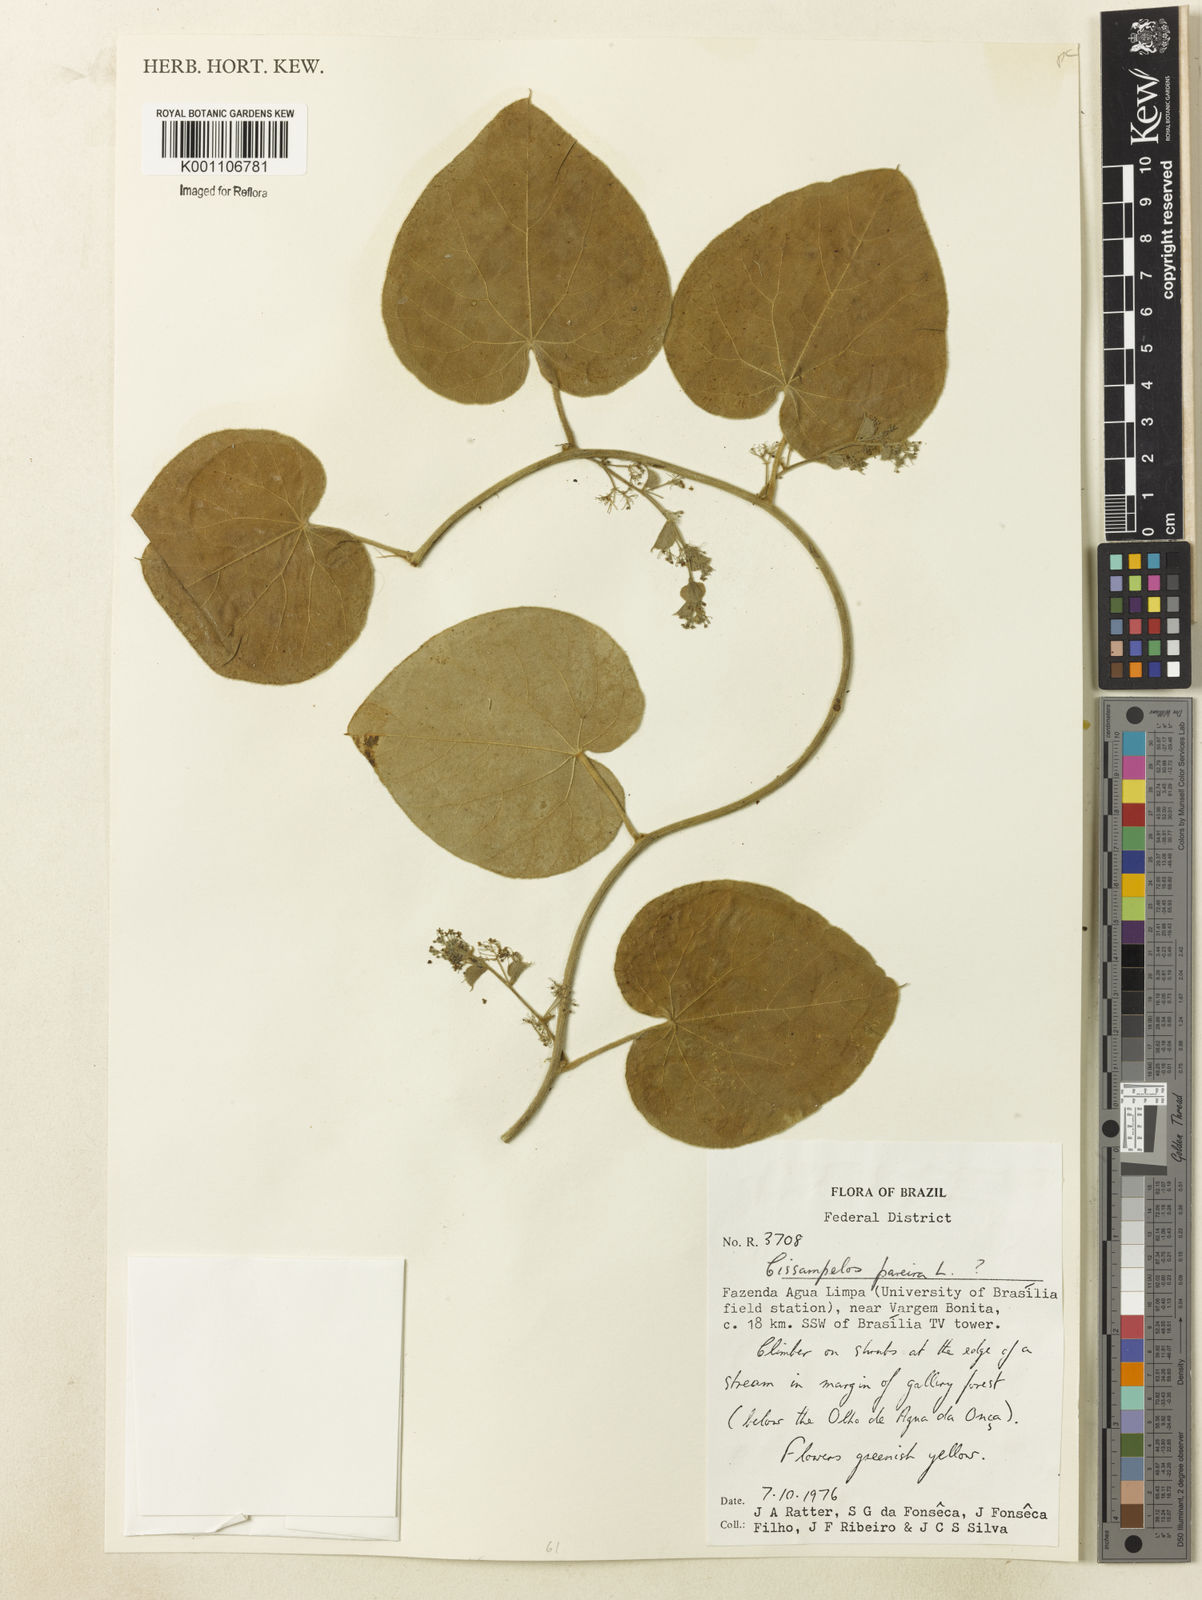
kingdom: Plantae
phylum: Tracheophyta
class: Magnoliopsida
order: Ranunculales
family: Menispermaceae
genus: Cissampelos
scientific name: Cissampelos pareira
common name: Velvetleaf
